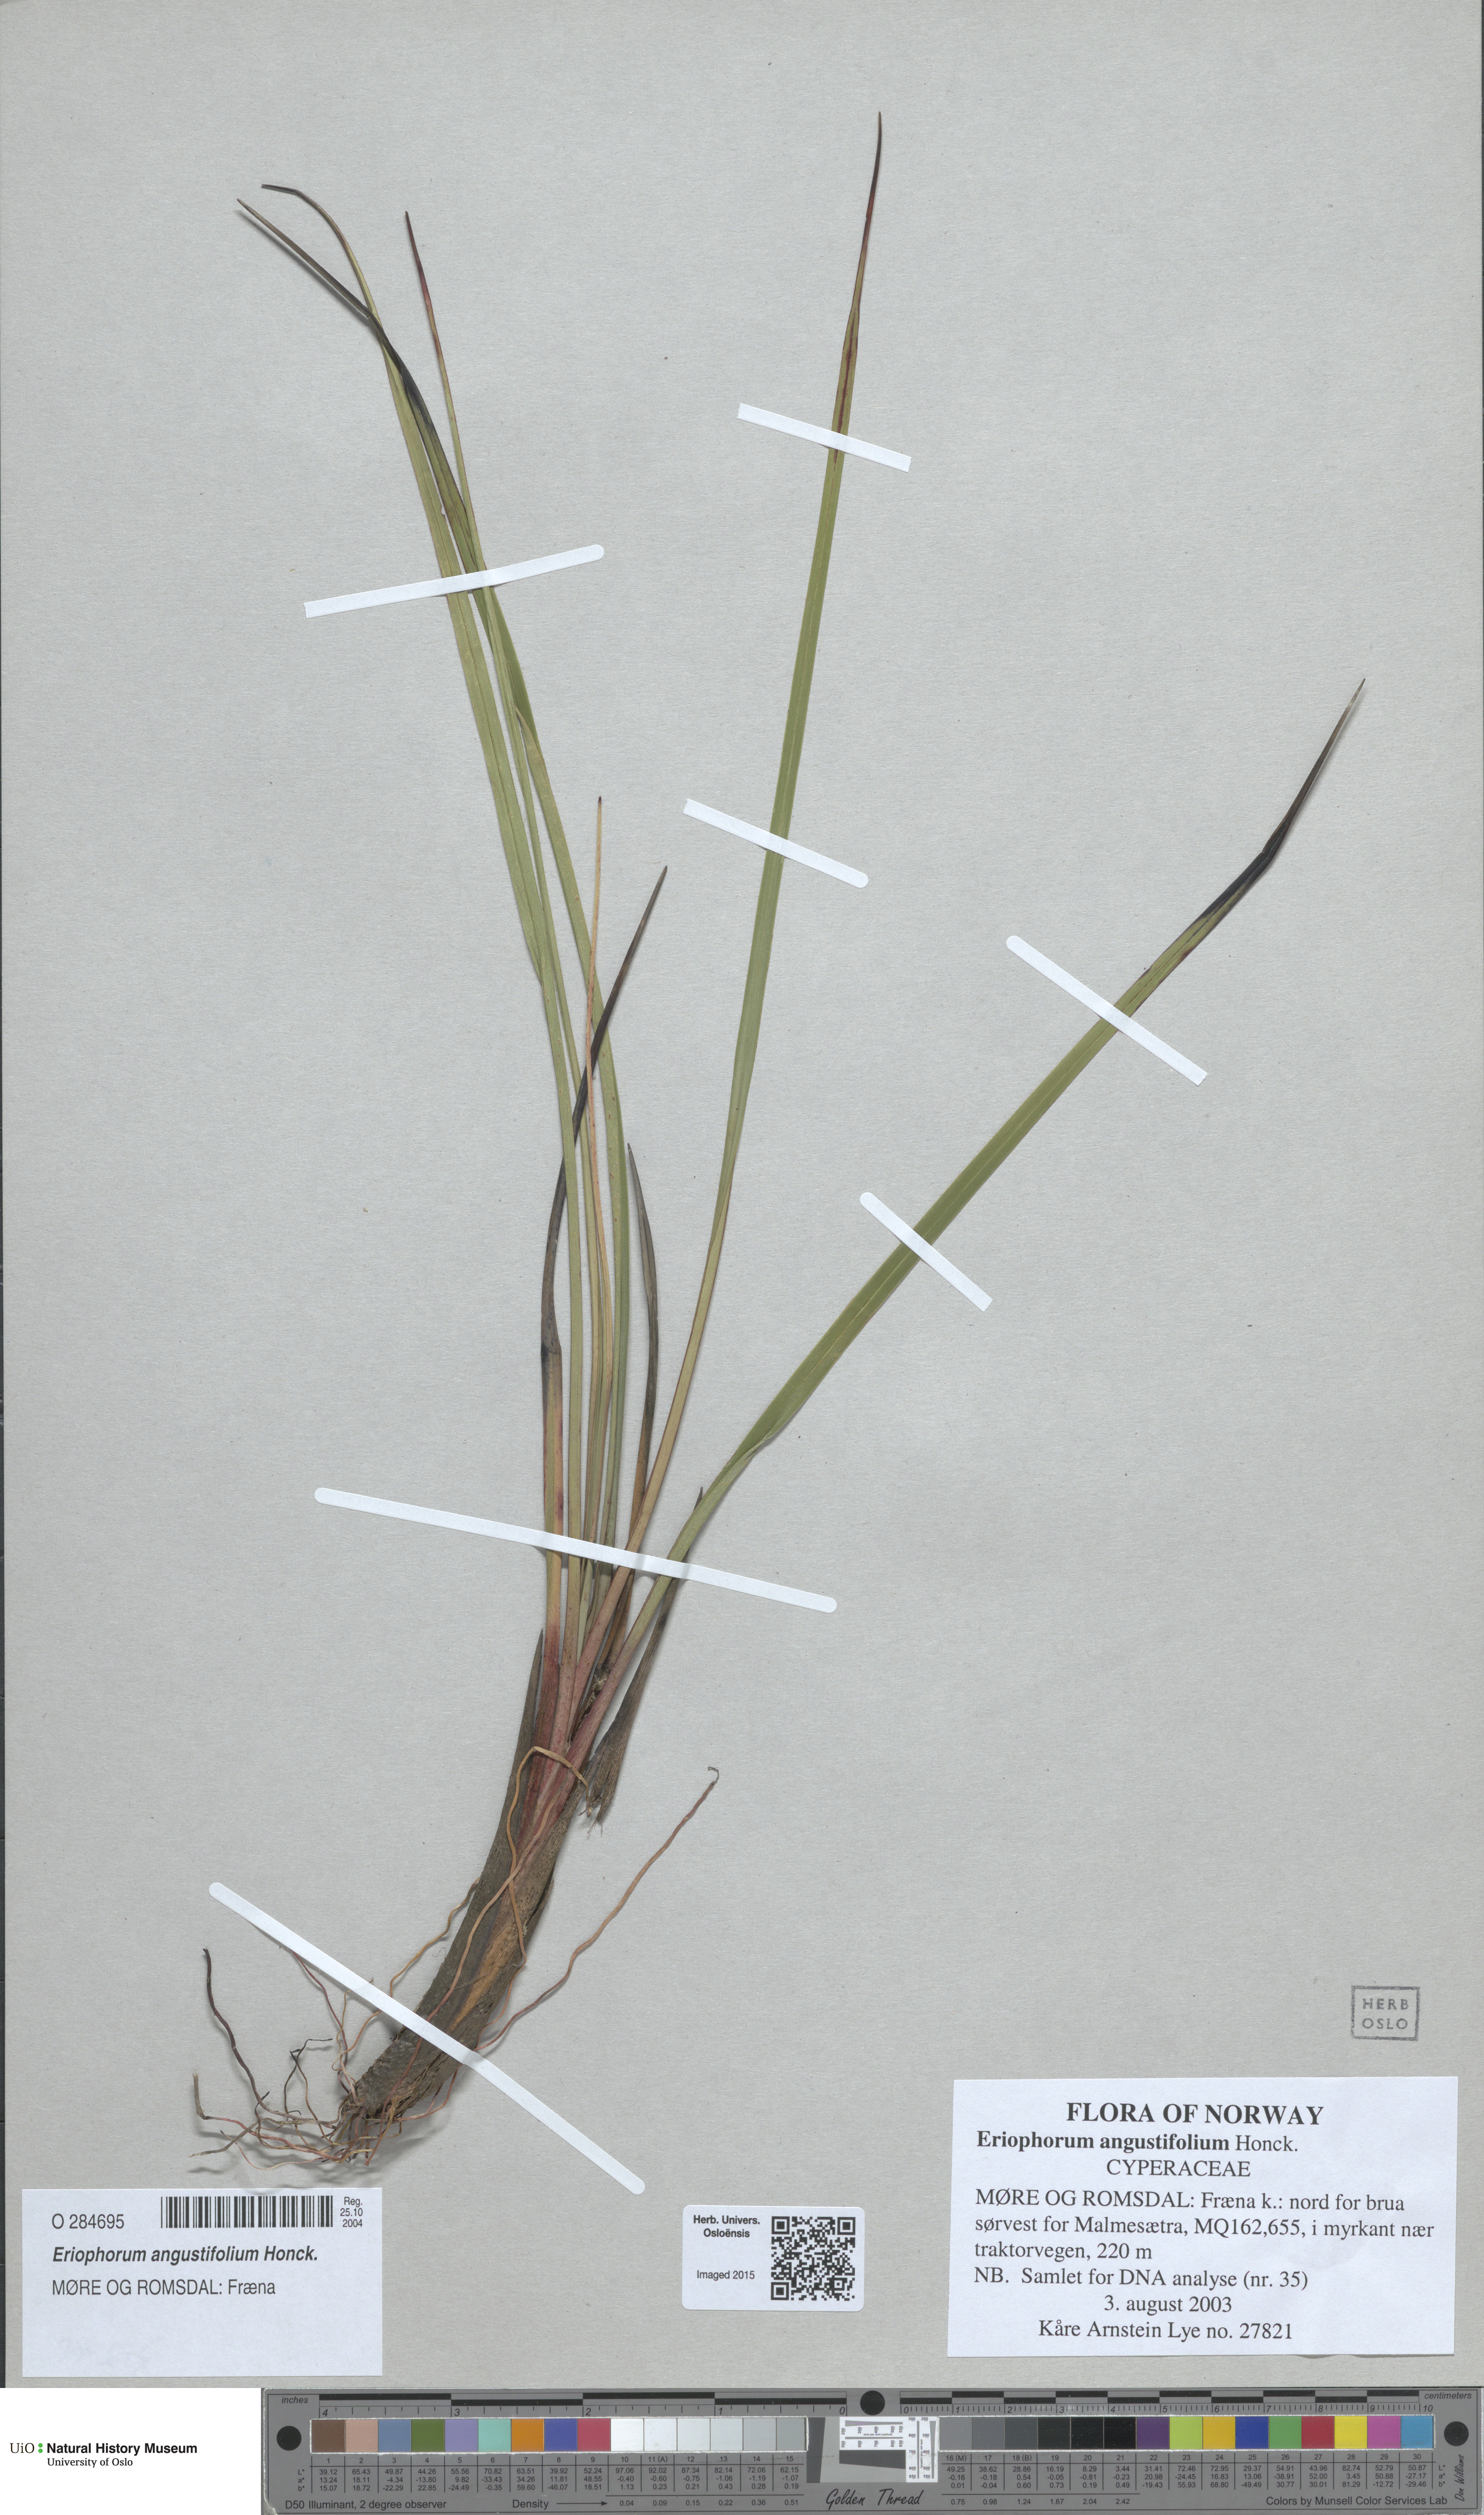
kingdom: Plantae
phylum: Tracheophyta
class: Liliopsida
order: Poales
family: Cyperaceae
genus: Eriophorum
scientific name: Eriophorum angustifolium
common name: Common cottongrass
